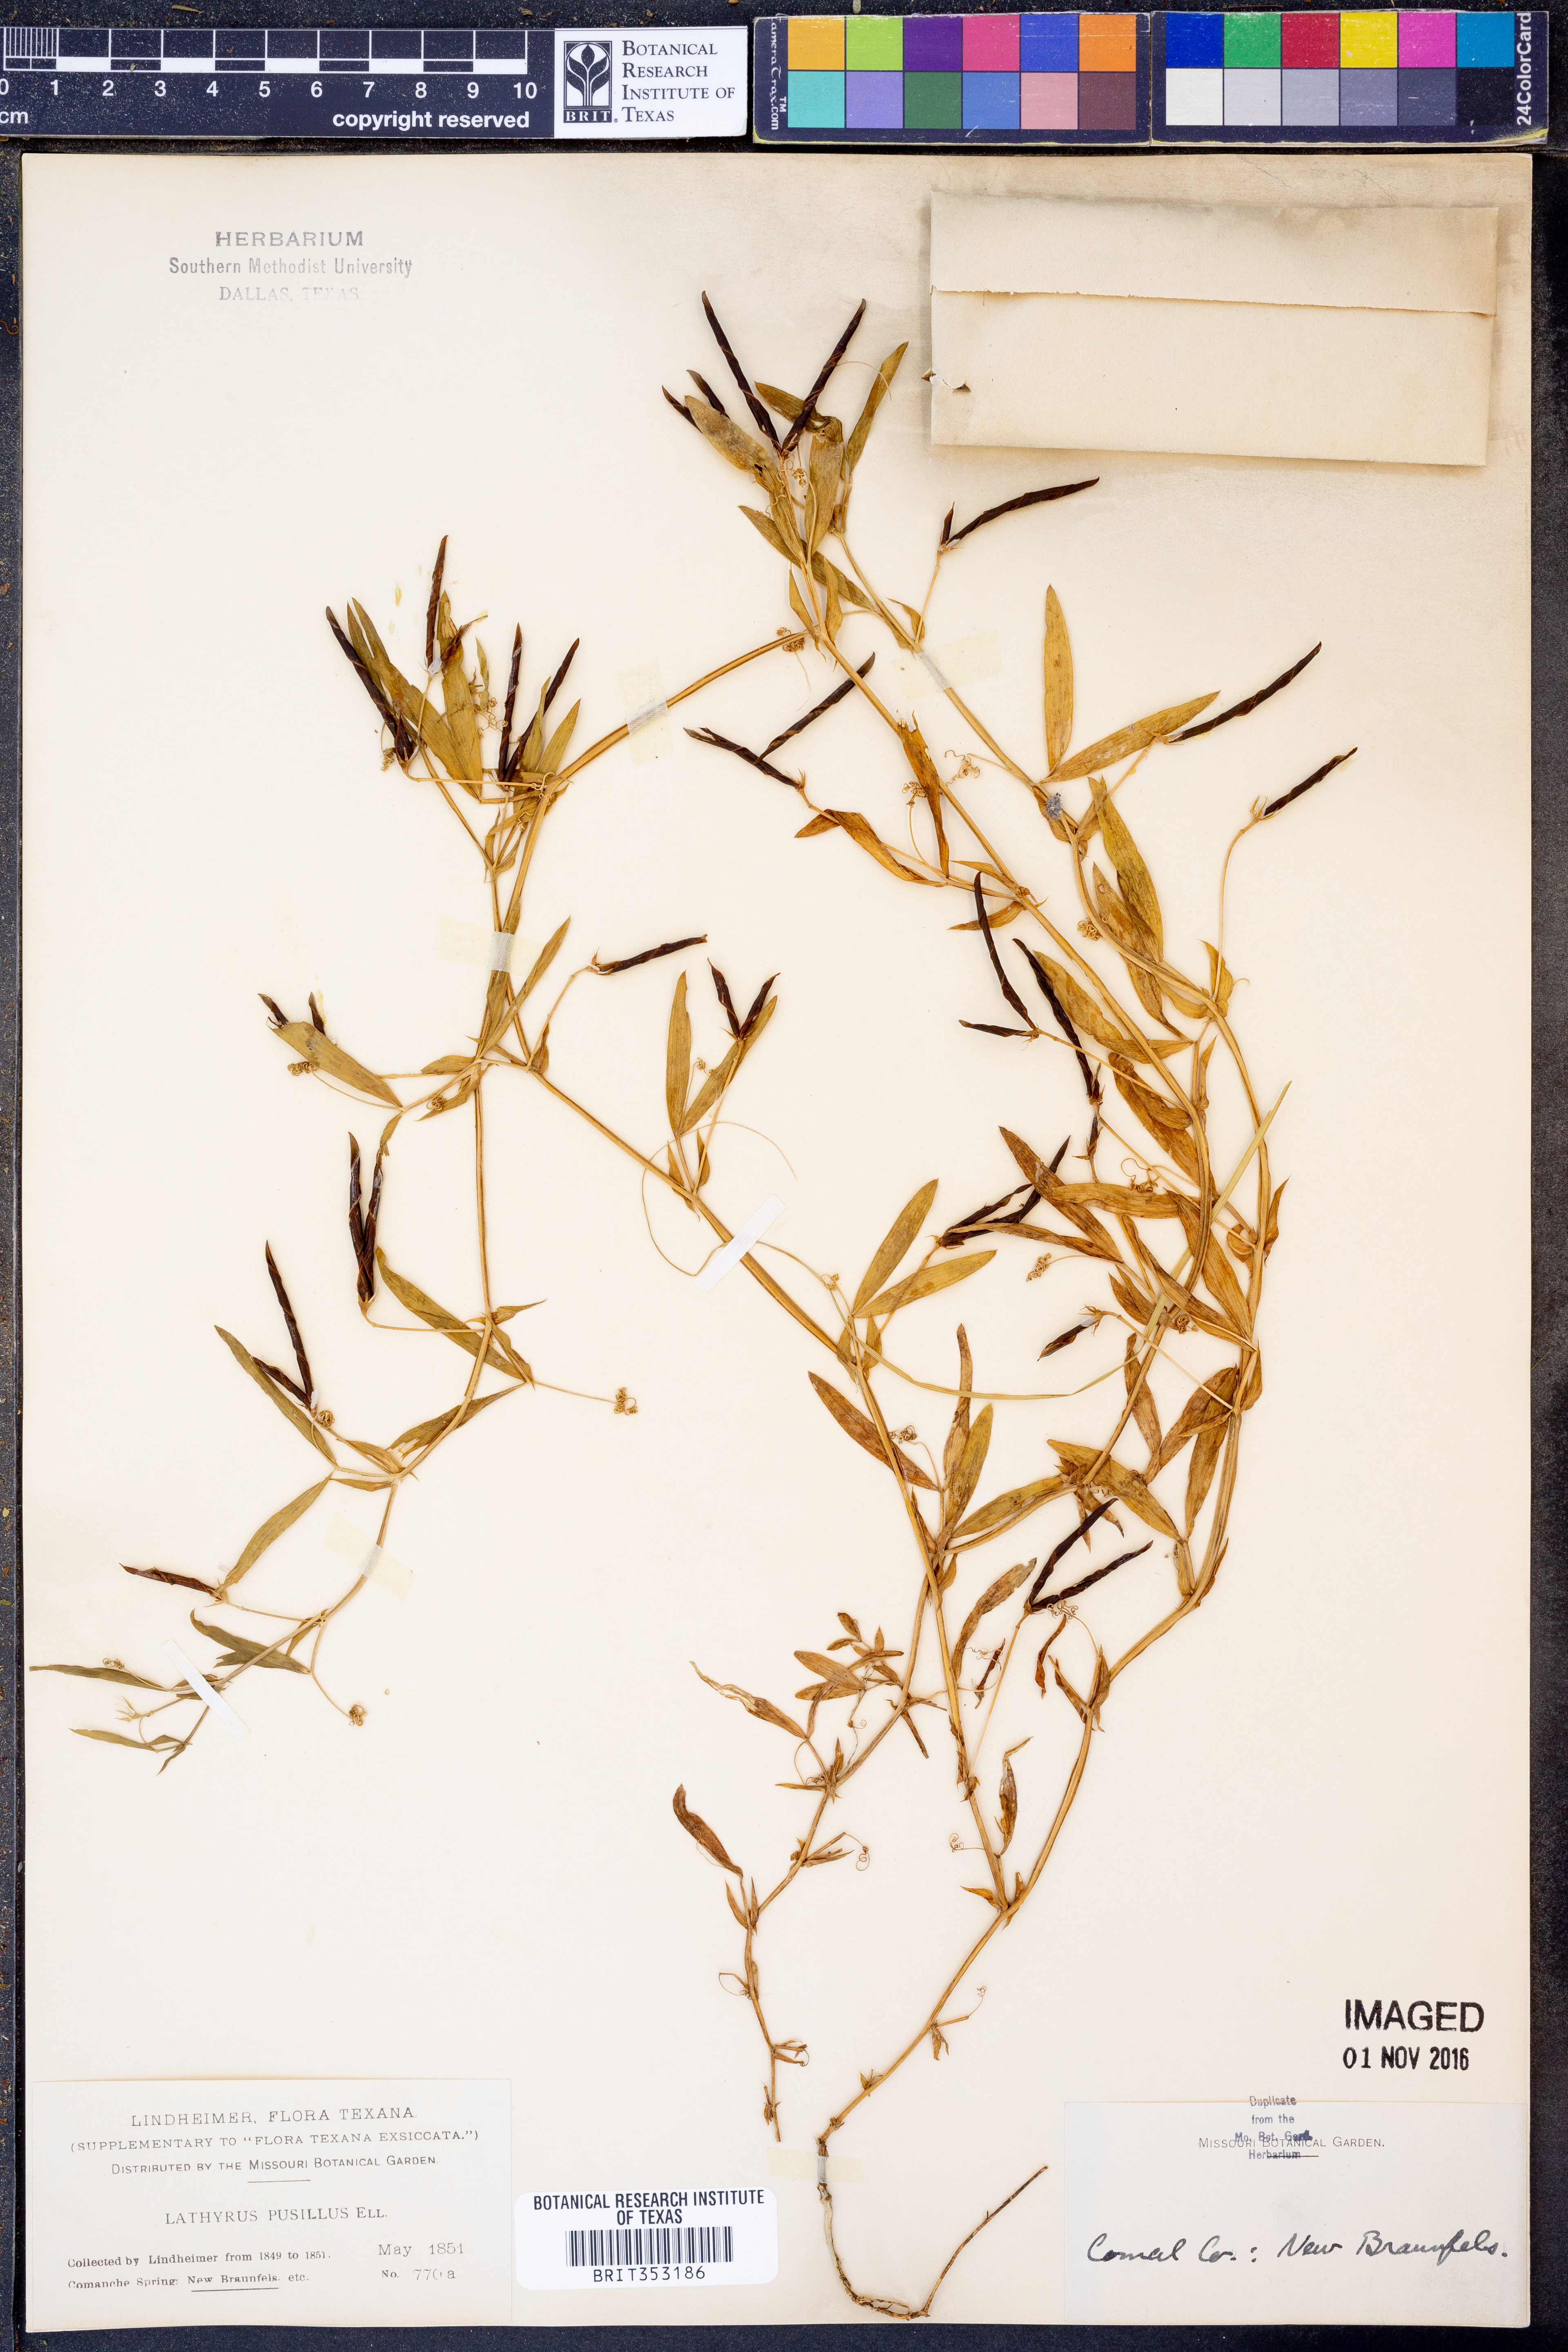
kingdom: Plantae
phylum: Tracheophyta
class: Magnoliopsida
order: Fabales
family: Fabaceae
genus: Lathyrus
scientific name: Lathyrus pusillus
